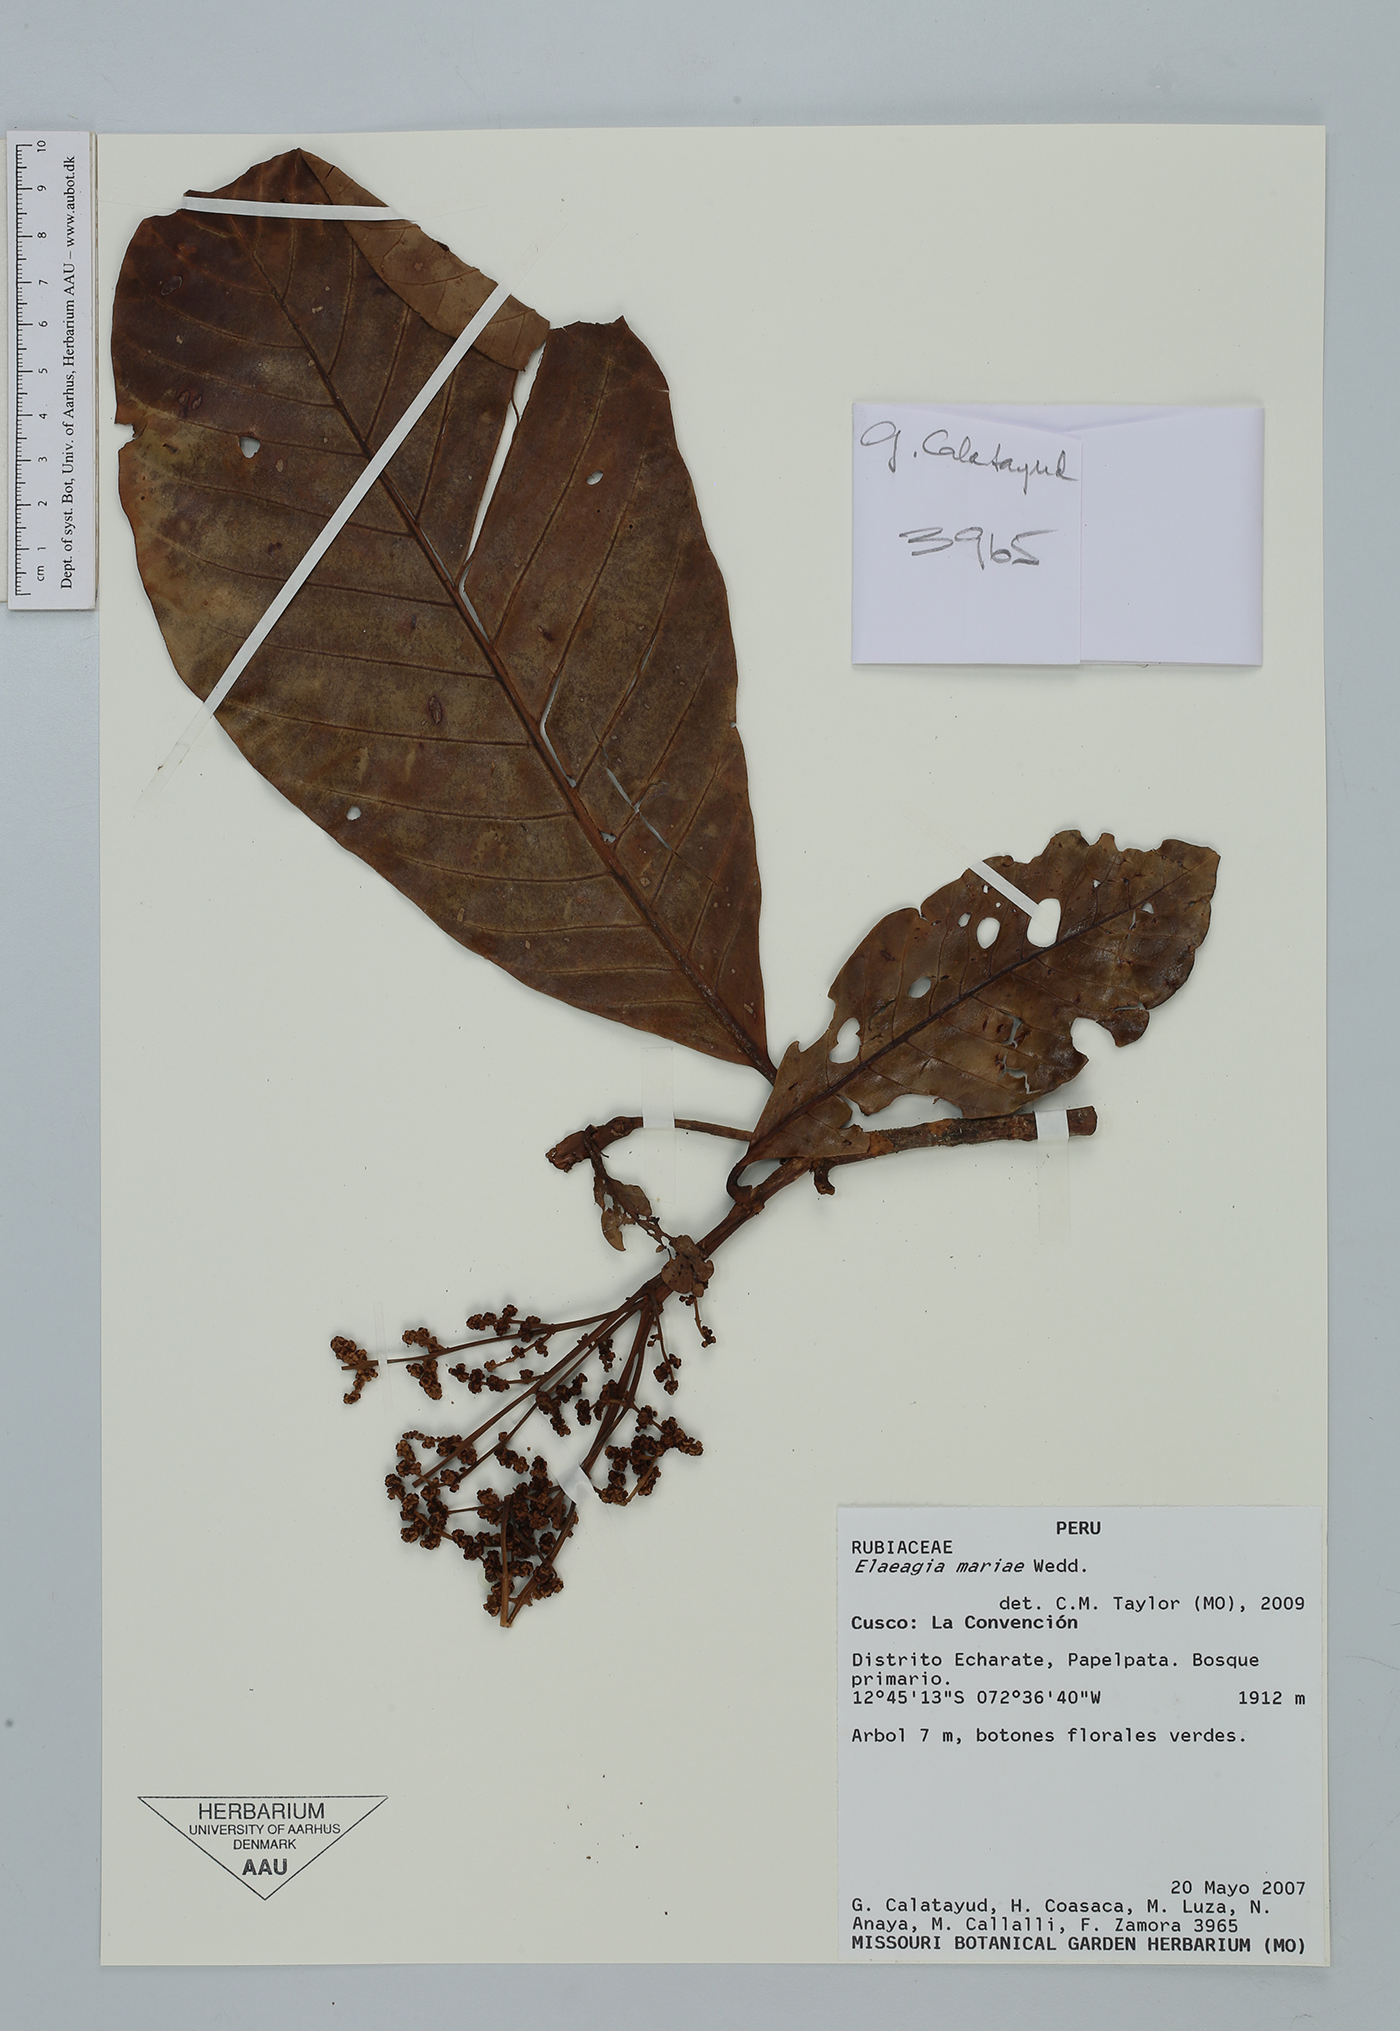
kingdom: Plantae
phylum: Tracheophyta
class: Magnoliopsida
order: Gentianales
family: Rubiaceae
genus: Elaeagia
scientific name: Elaeagia mariae
